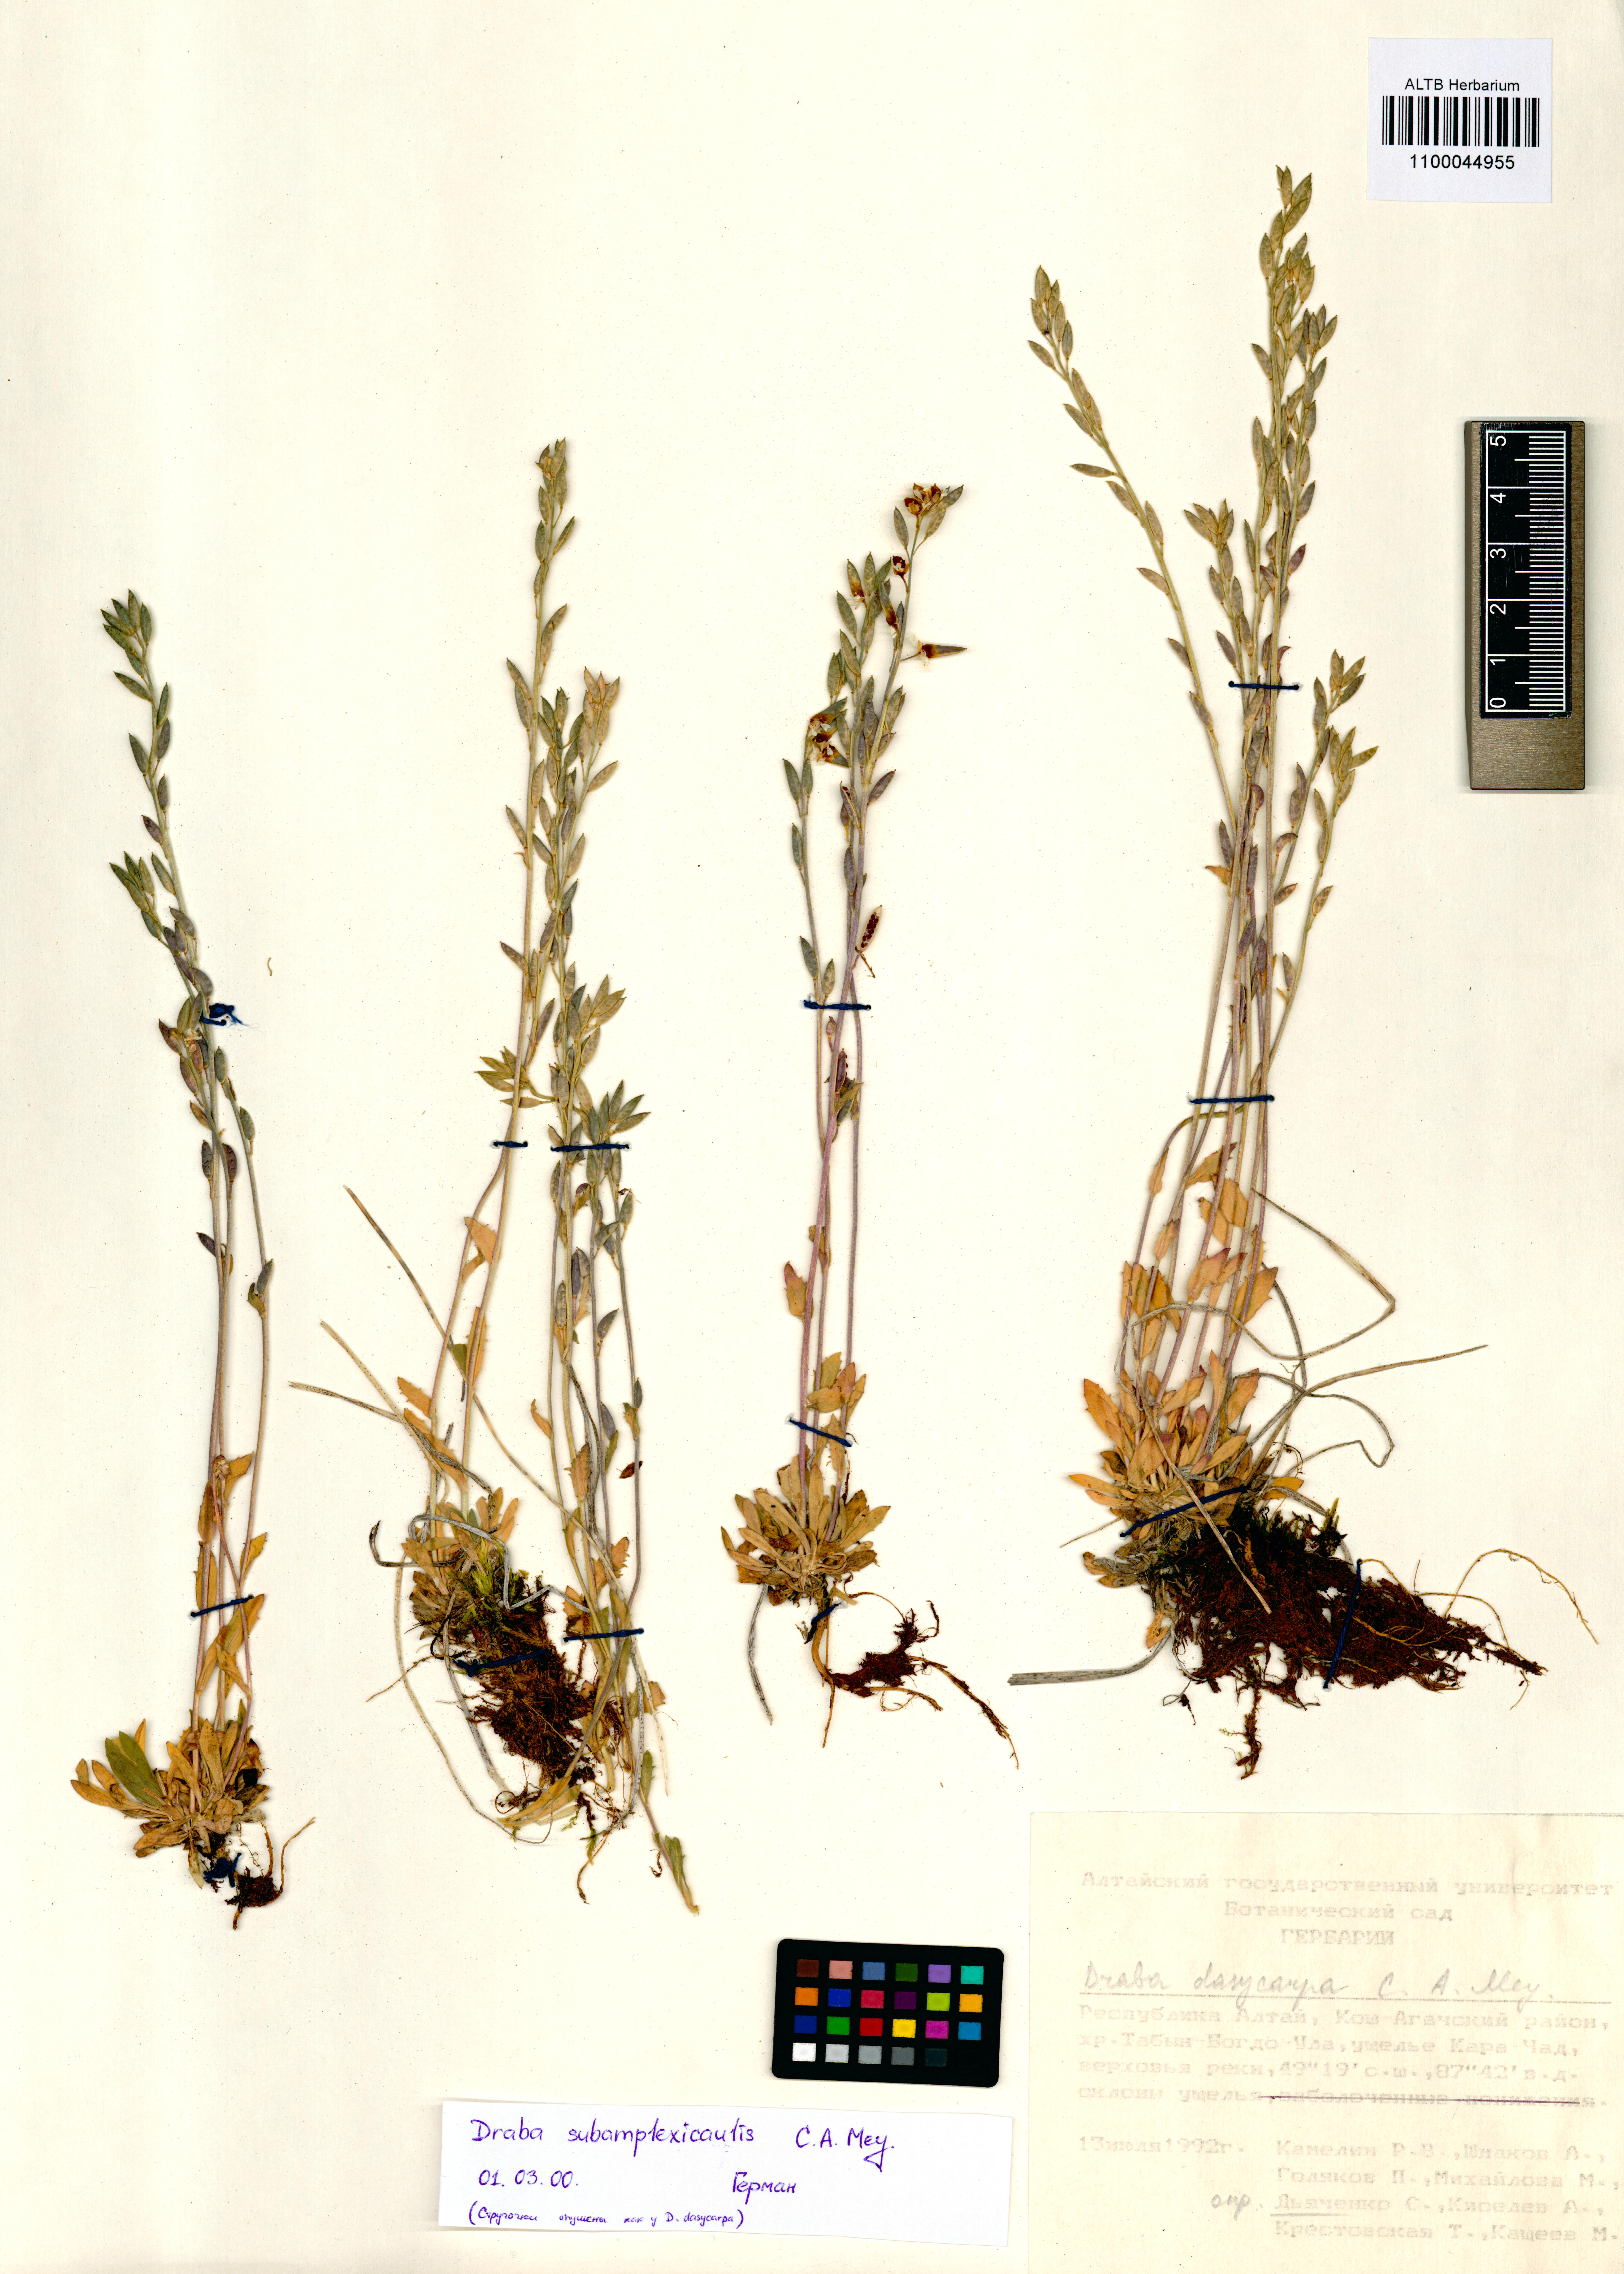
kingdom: Plantae
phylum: Tracheophyta
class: Magnoliopsida
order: Brassicales
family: Brassicaceae
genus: Draba
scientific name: Draba subamplexicaulis
